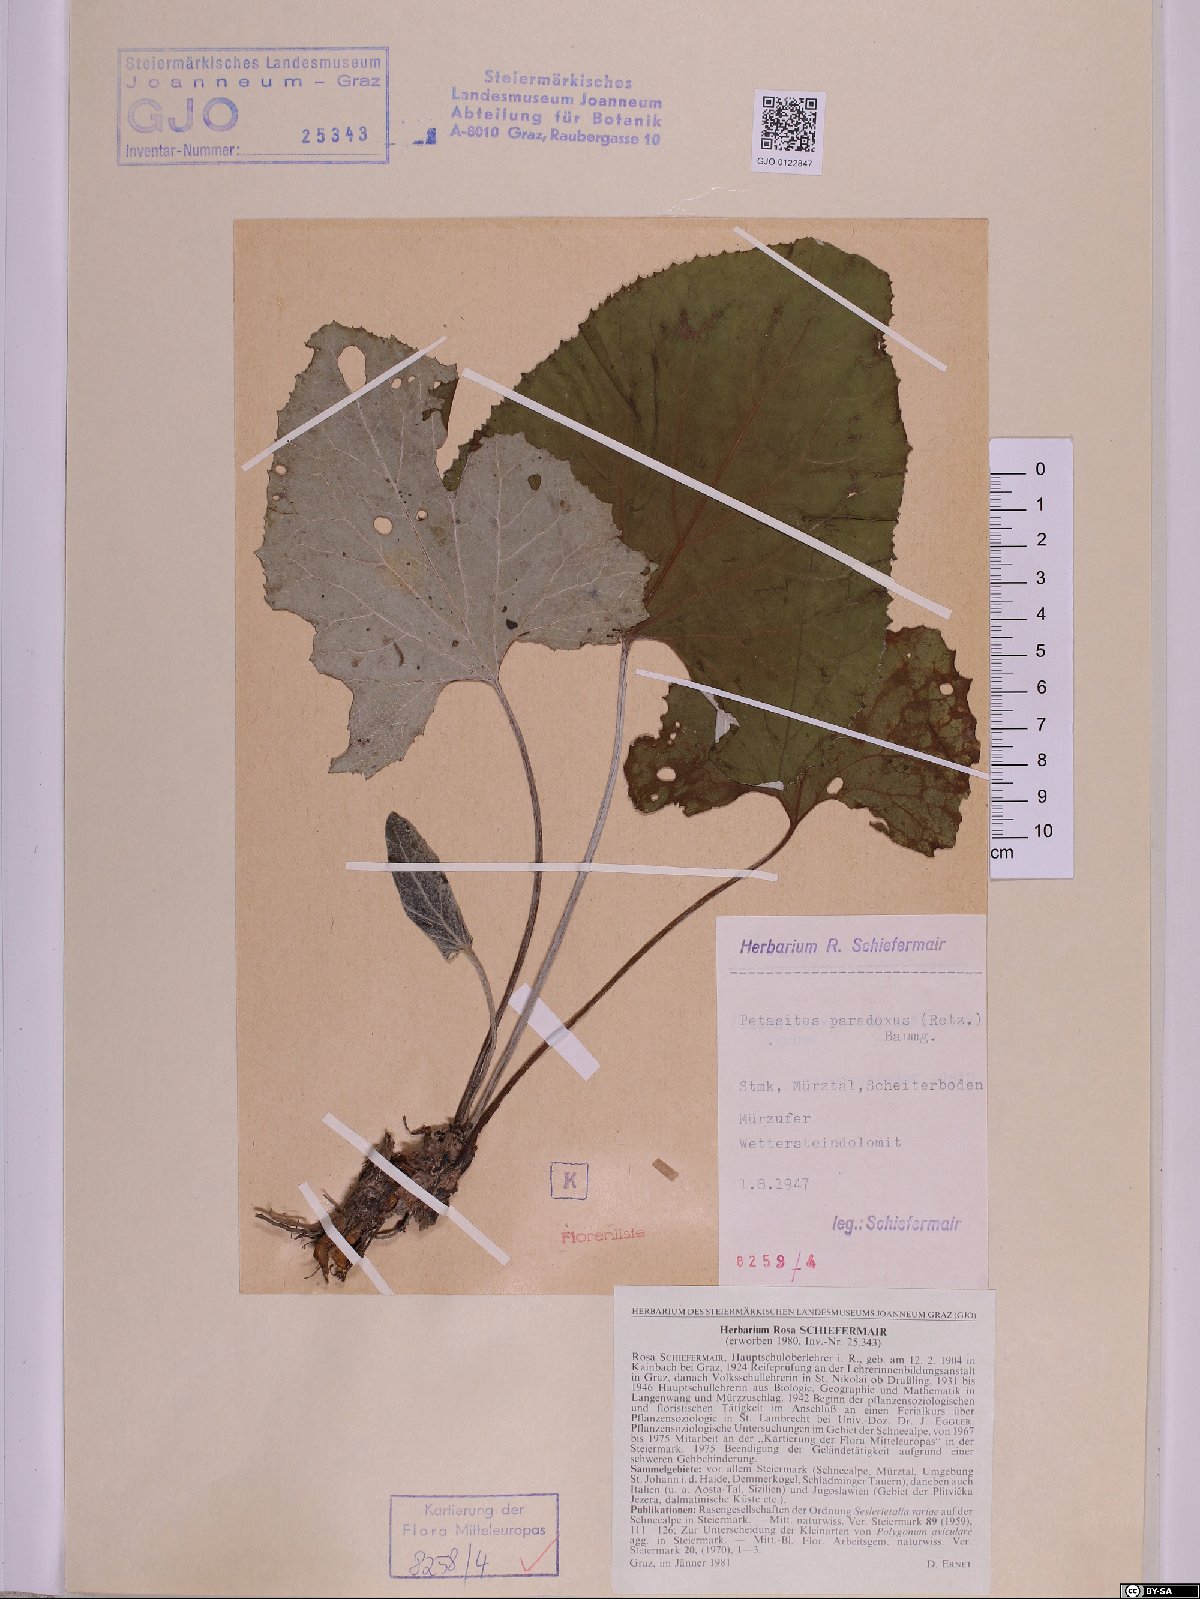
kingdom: Plantae
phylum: Tracheophyta
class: Magnoliopsida
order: Asterales
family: Asteraceae
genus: Petasites
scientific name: Petasites paradoxus
